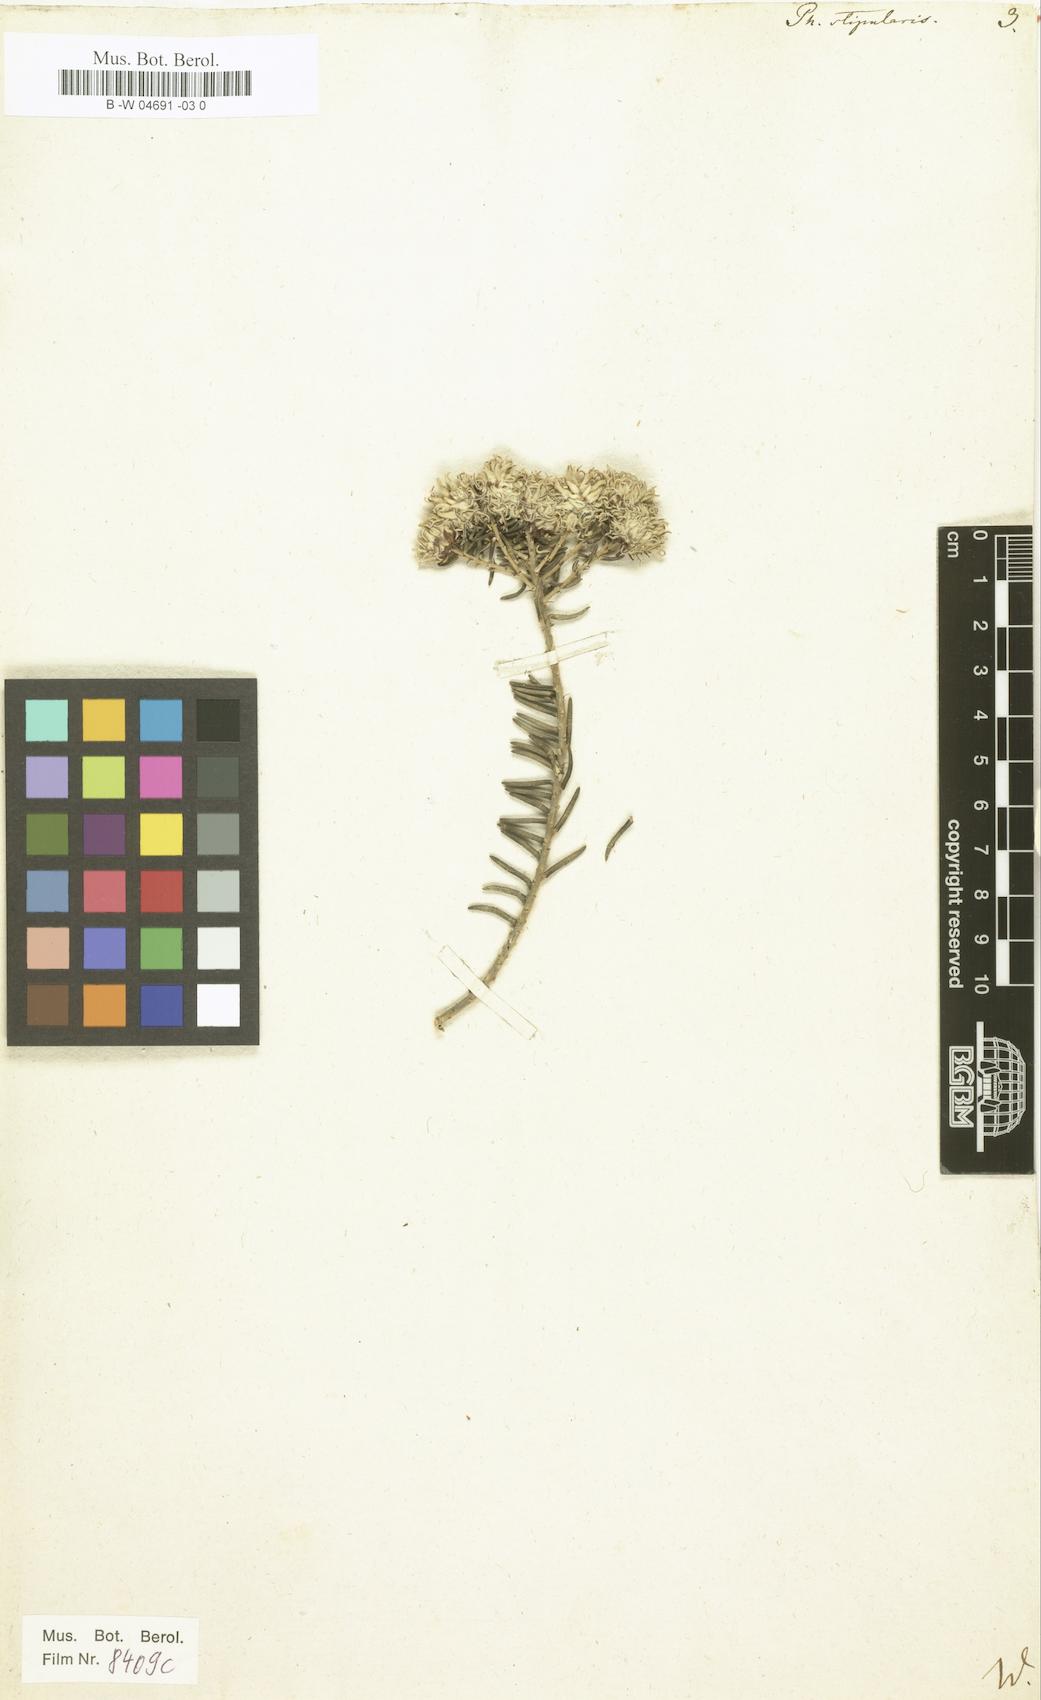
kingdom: Plantae
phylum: Tracheophyta
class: Magnoliopsida
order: Rosales
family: Rhamnaceae
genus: Trichocephalus
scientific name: Trichocephalus stipularis
